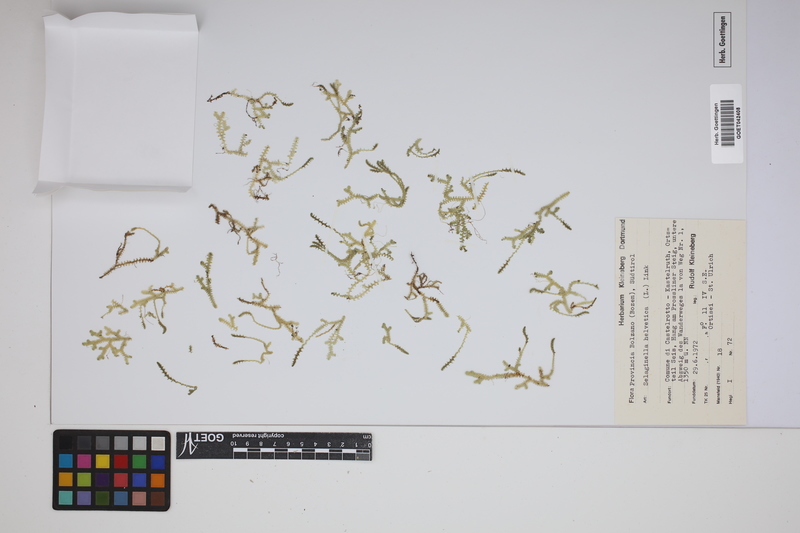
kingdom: Plantae
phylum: Tracheophyta
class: Lycopodiopsida
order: Selaginellales
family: Selaginellaceae
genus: Selaginella
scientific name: Selaginella helvetica
